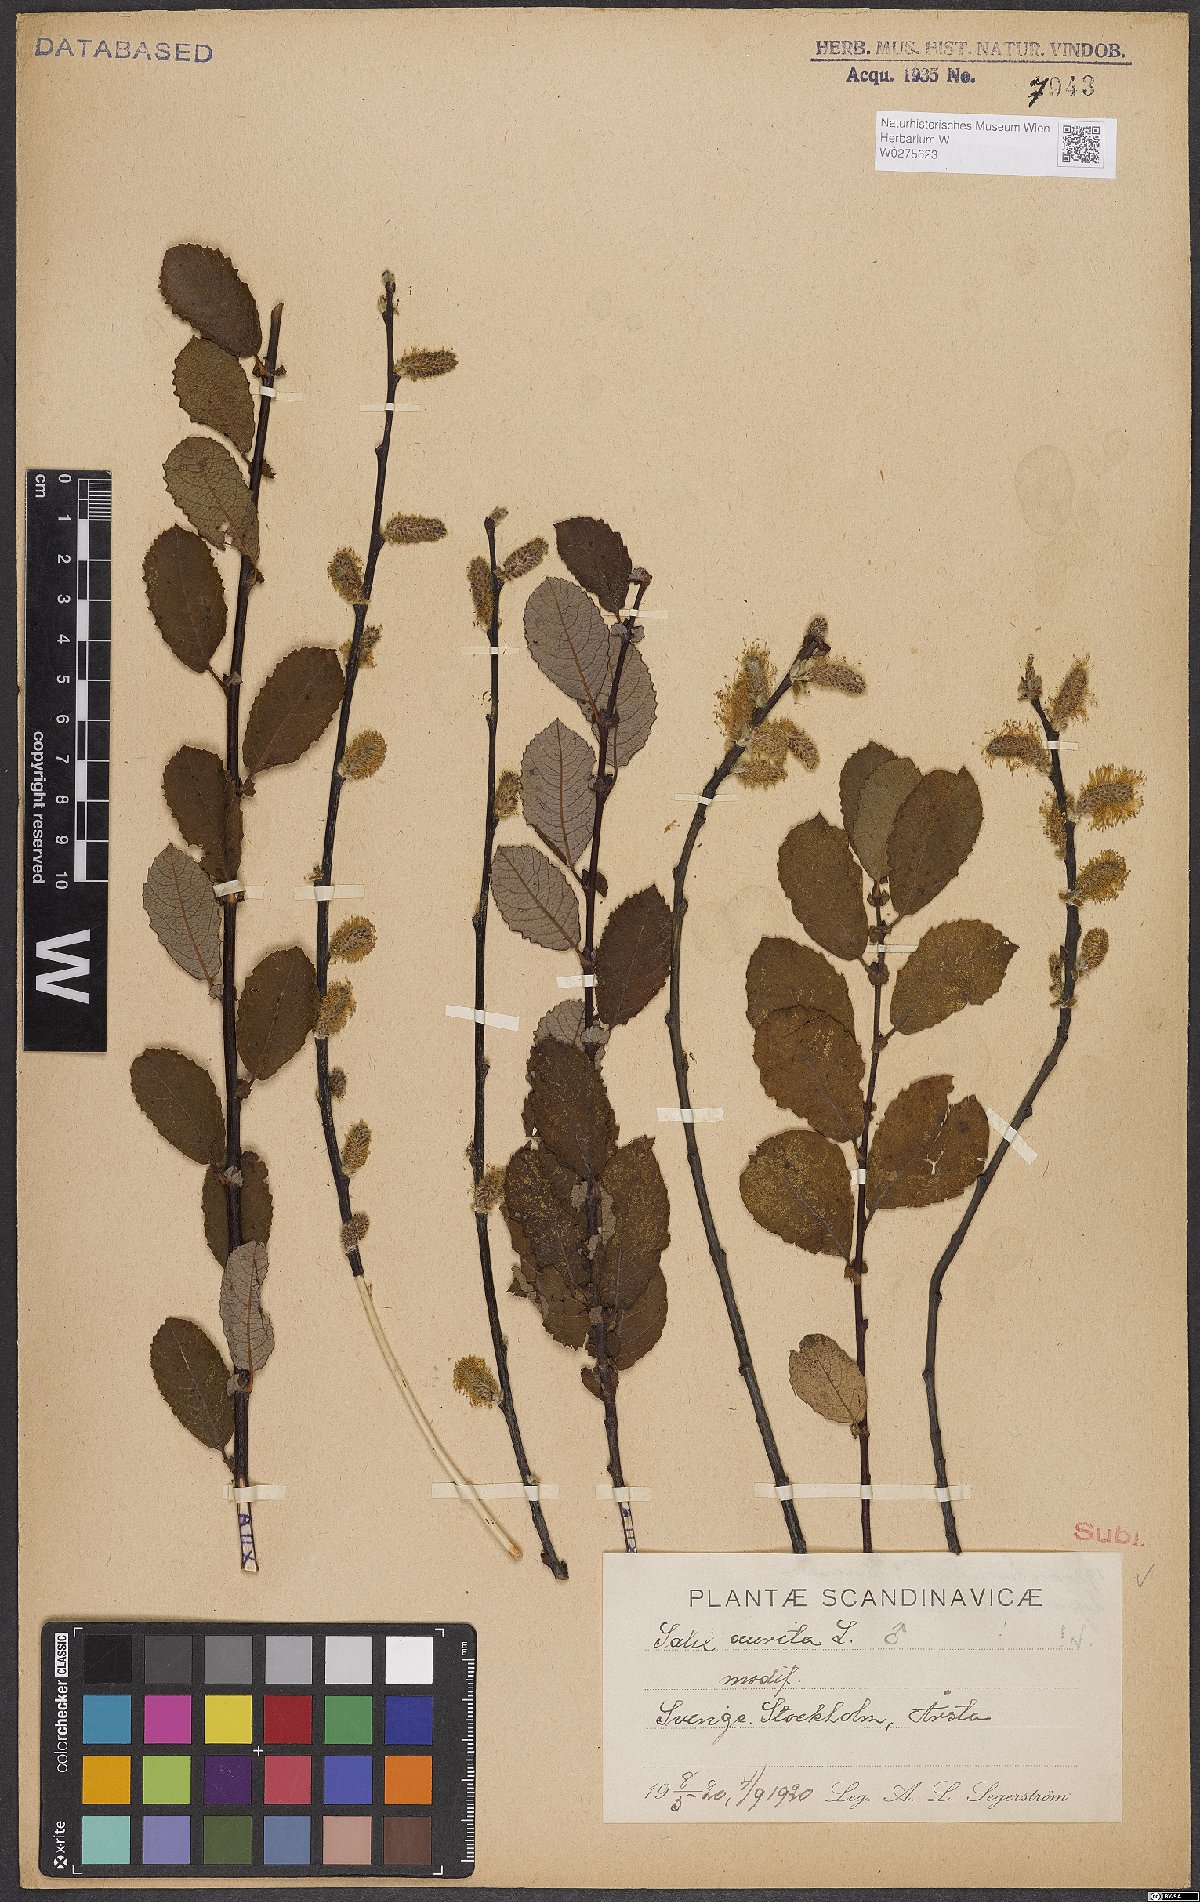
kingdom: Plantae
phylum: Tracheophyta
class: Magnoliopsida
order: Malpighiales
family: Salicaceae
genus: Salix
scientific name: Salix aurita
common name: Eared willow
